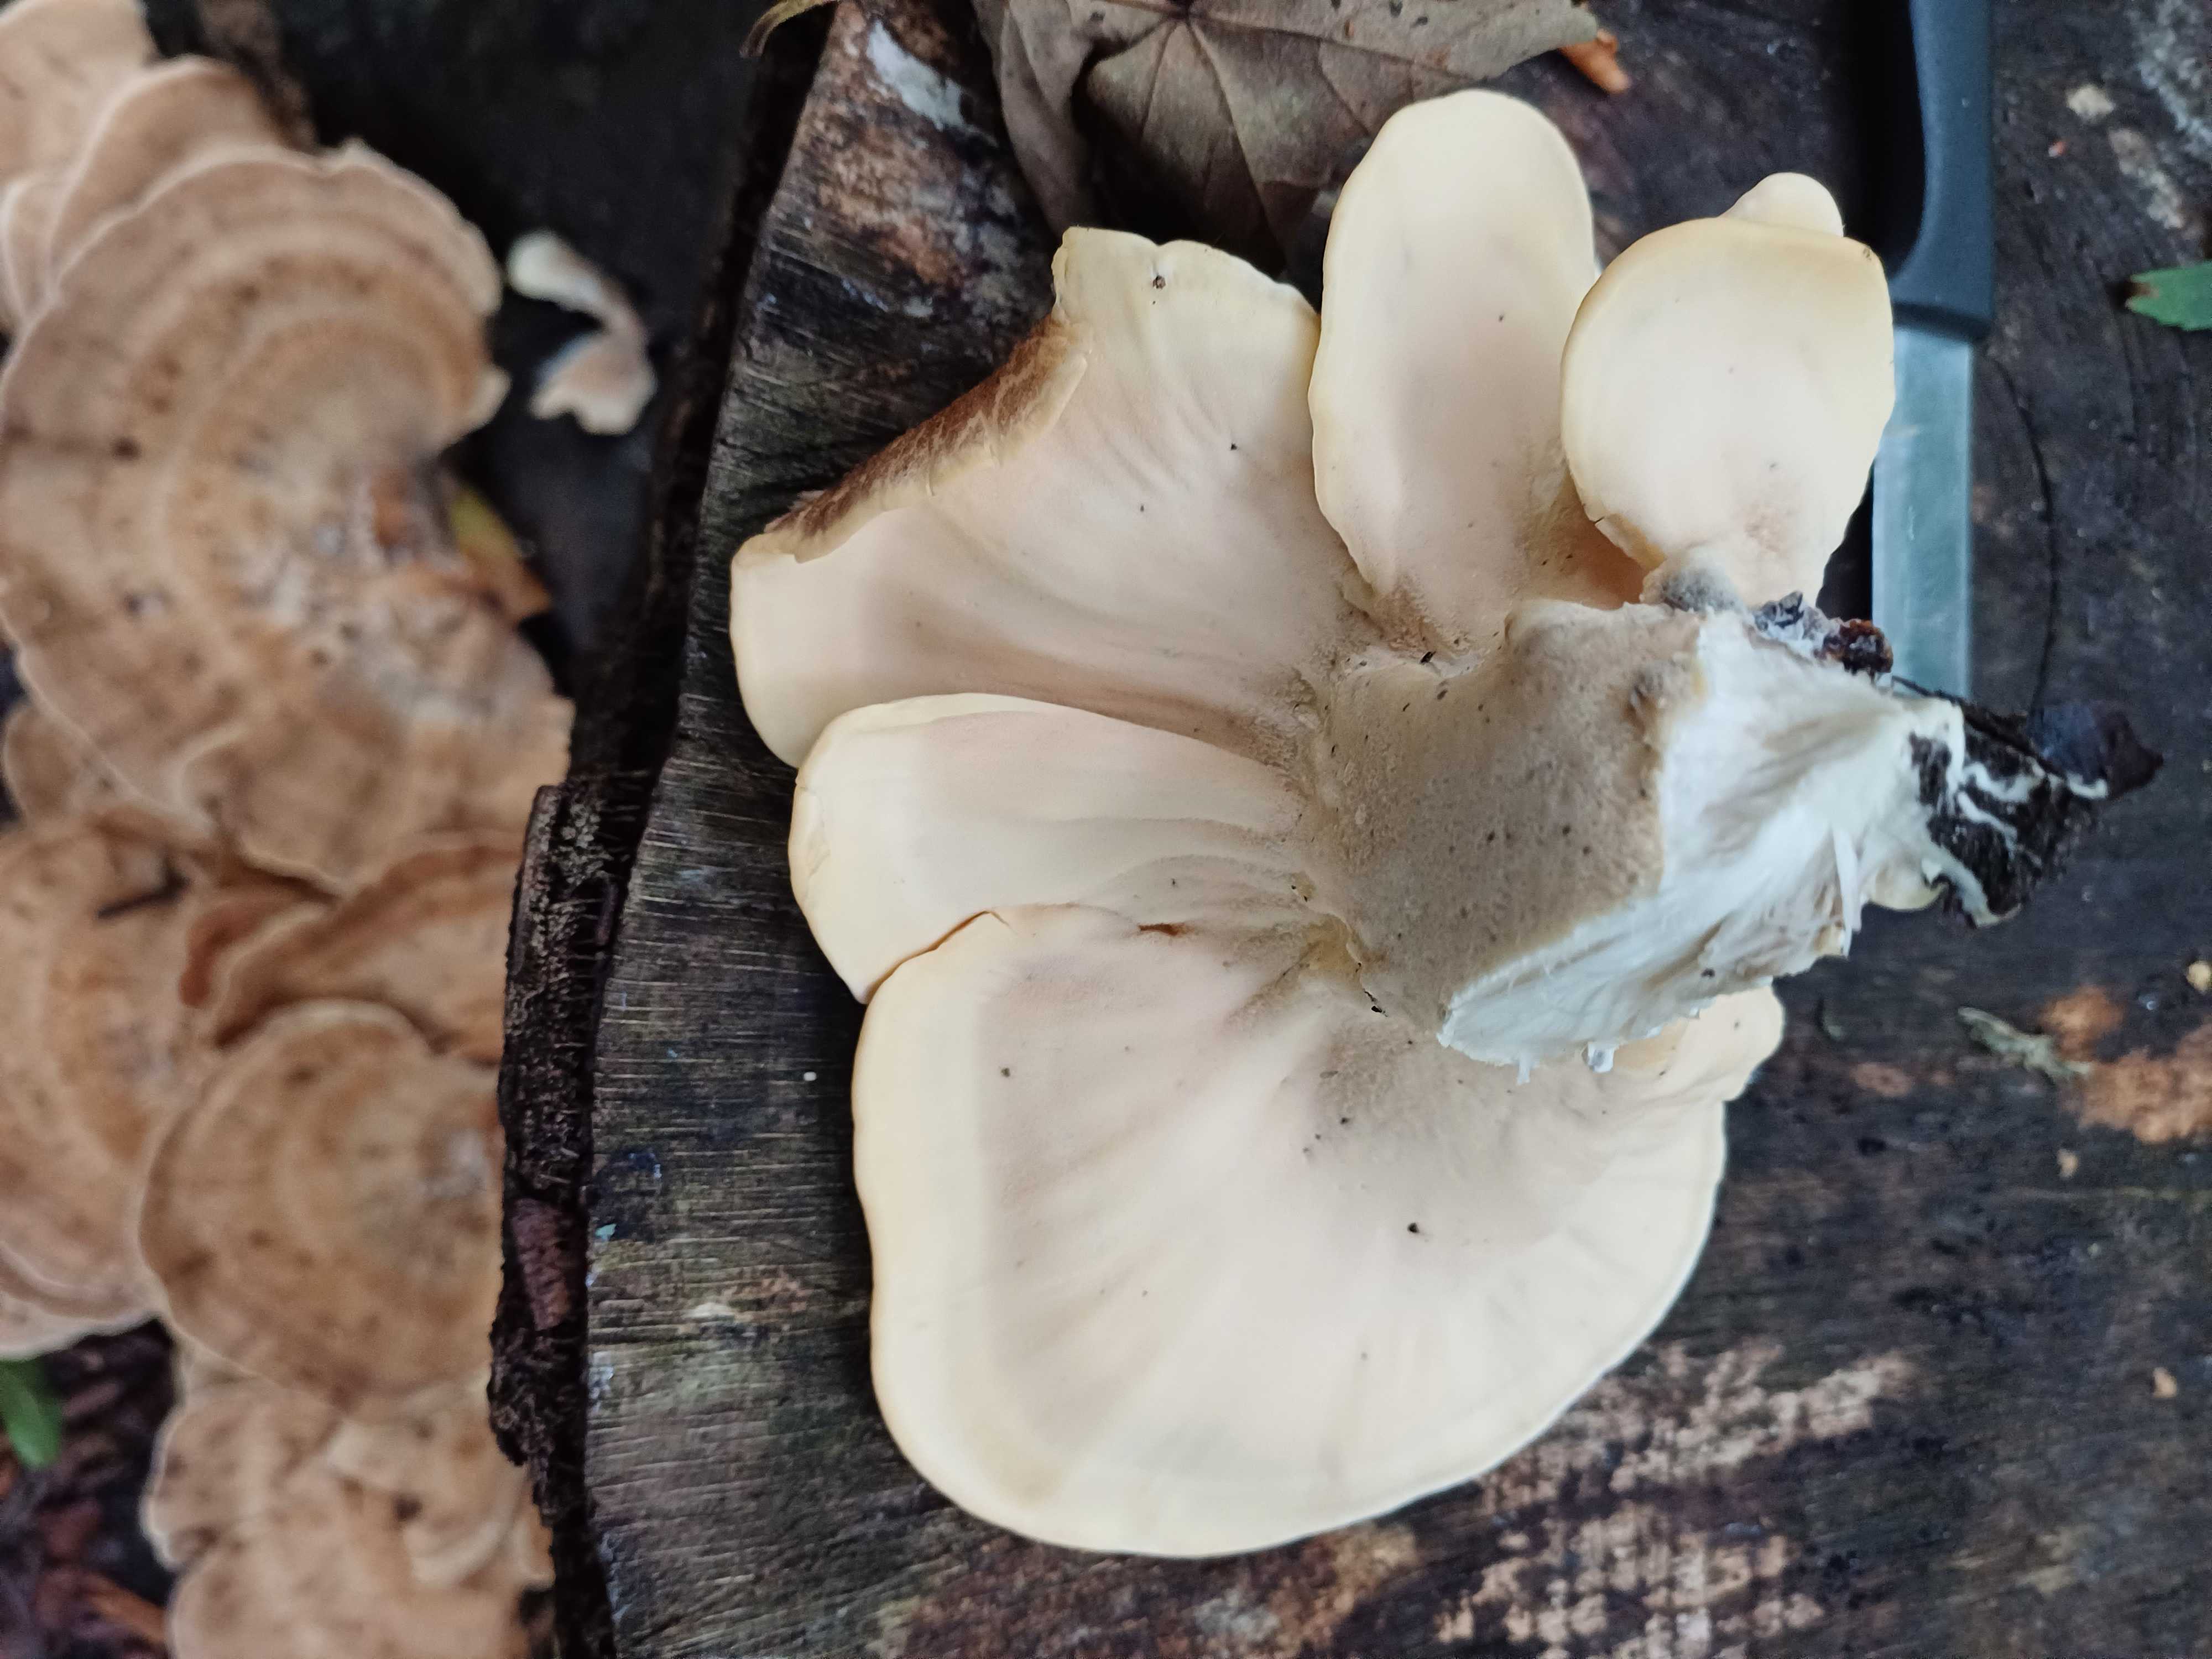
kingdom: Fungi
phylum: Basidiomycota
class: Agaricomycetes
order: Polyporales
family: Meripilaceae
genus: Meripilus
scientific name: Meripilus giganteus
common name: kæmpeporesvamp
